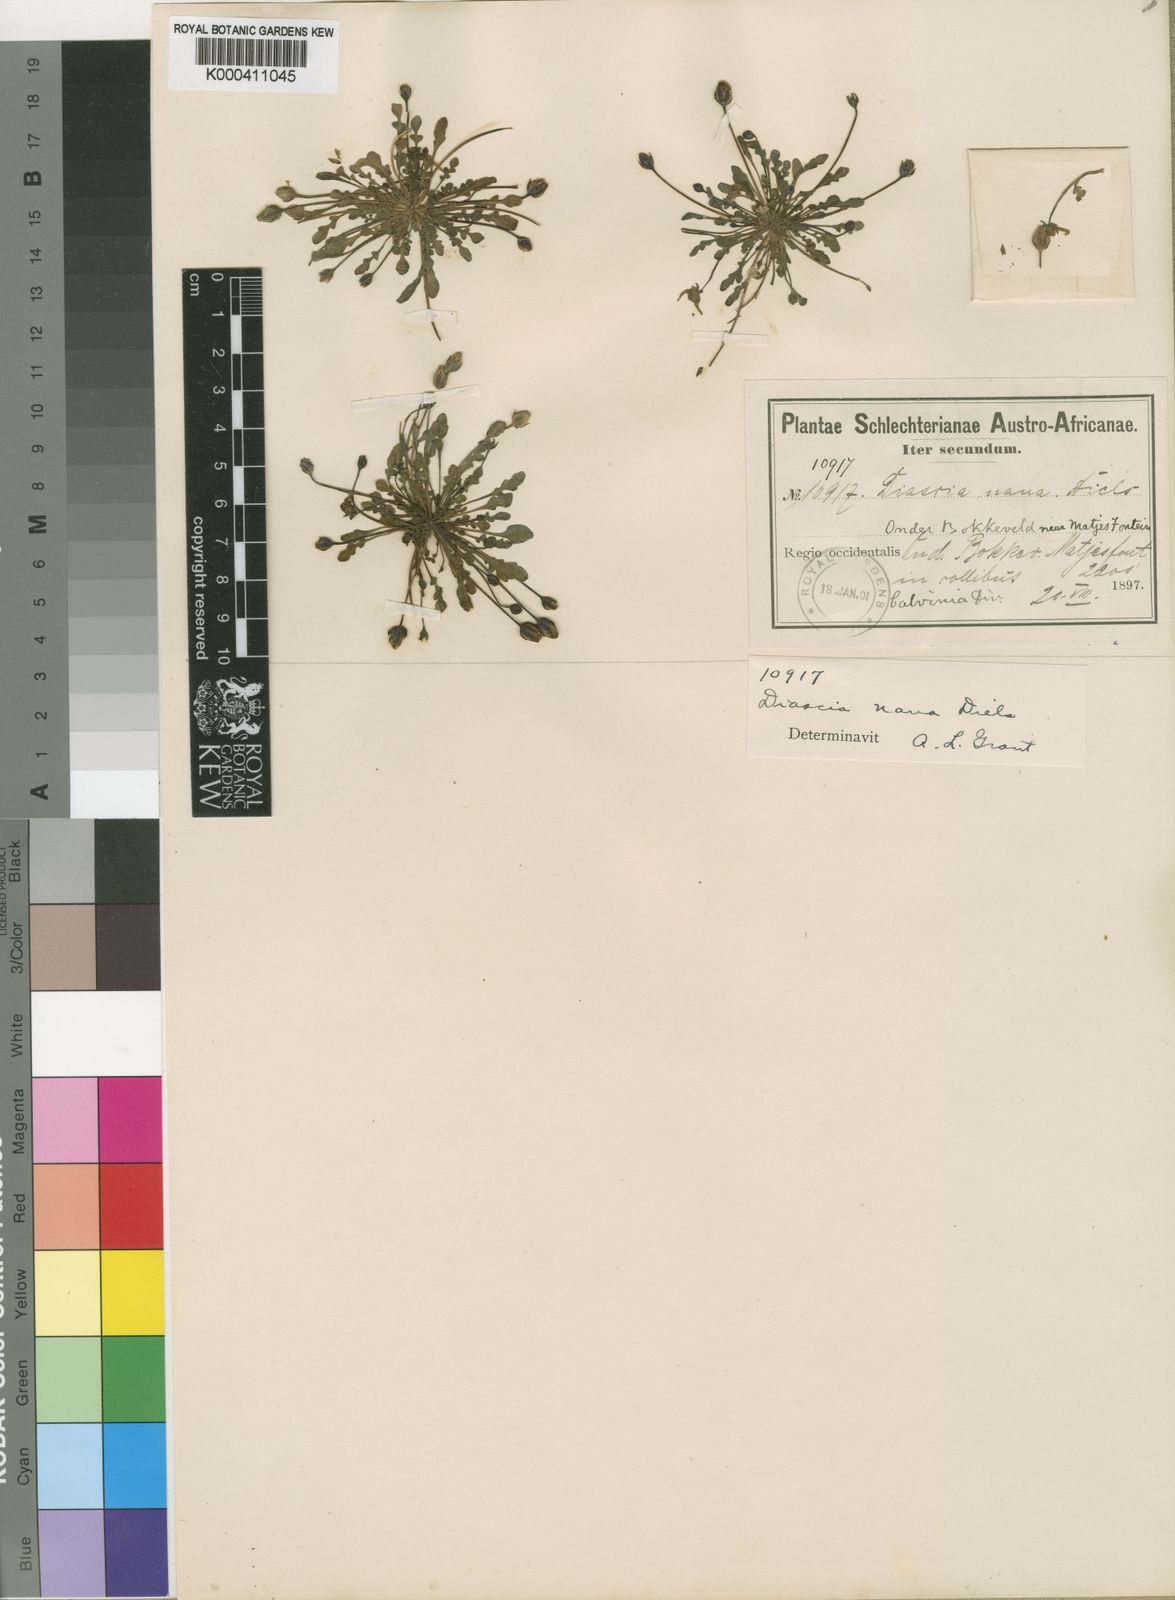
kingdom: Plantae
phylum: Tracheophyta
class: Magnoliopsida
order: Lamiales
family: Scrophulariaceae
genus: Diascia
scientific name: Diascia nana
